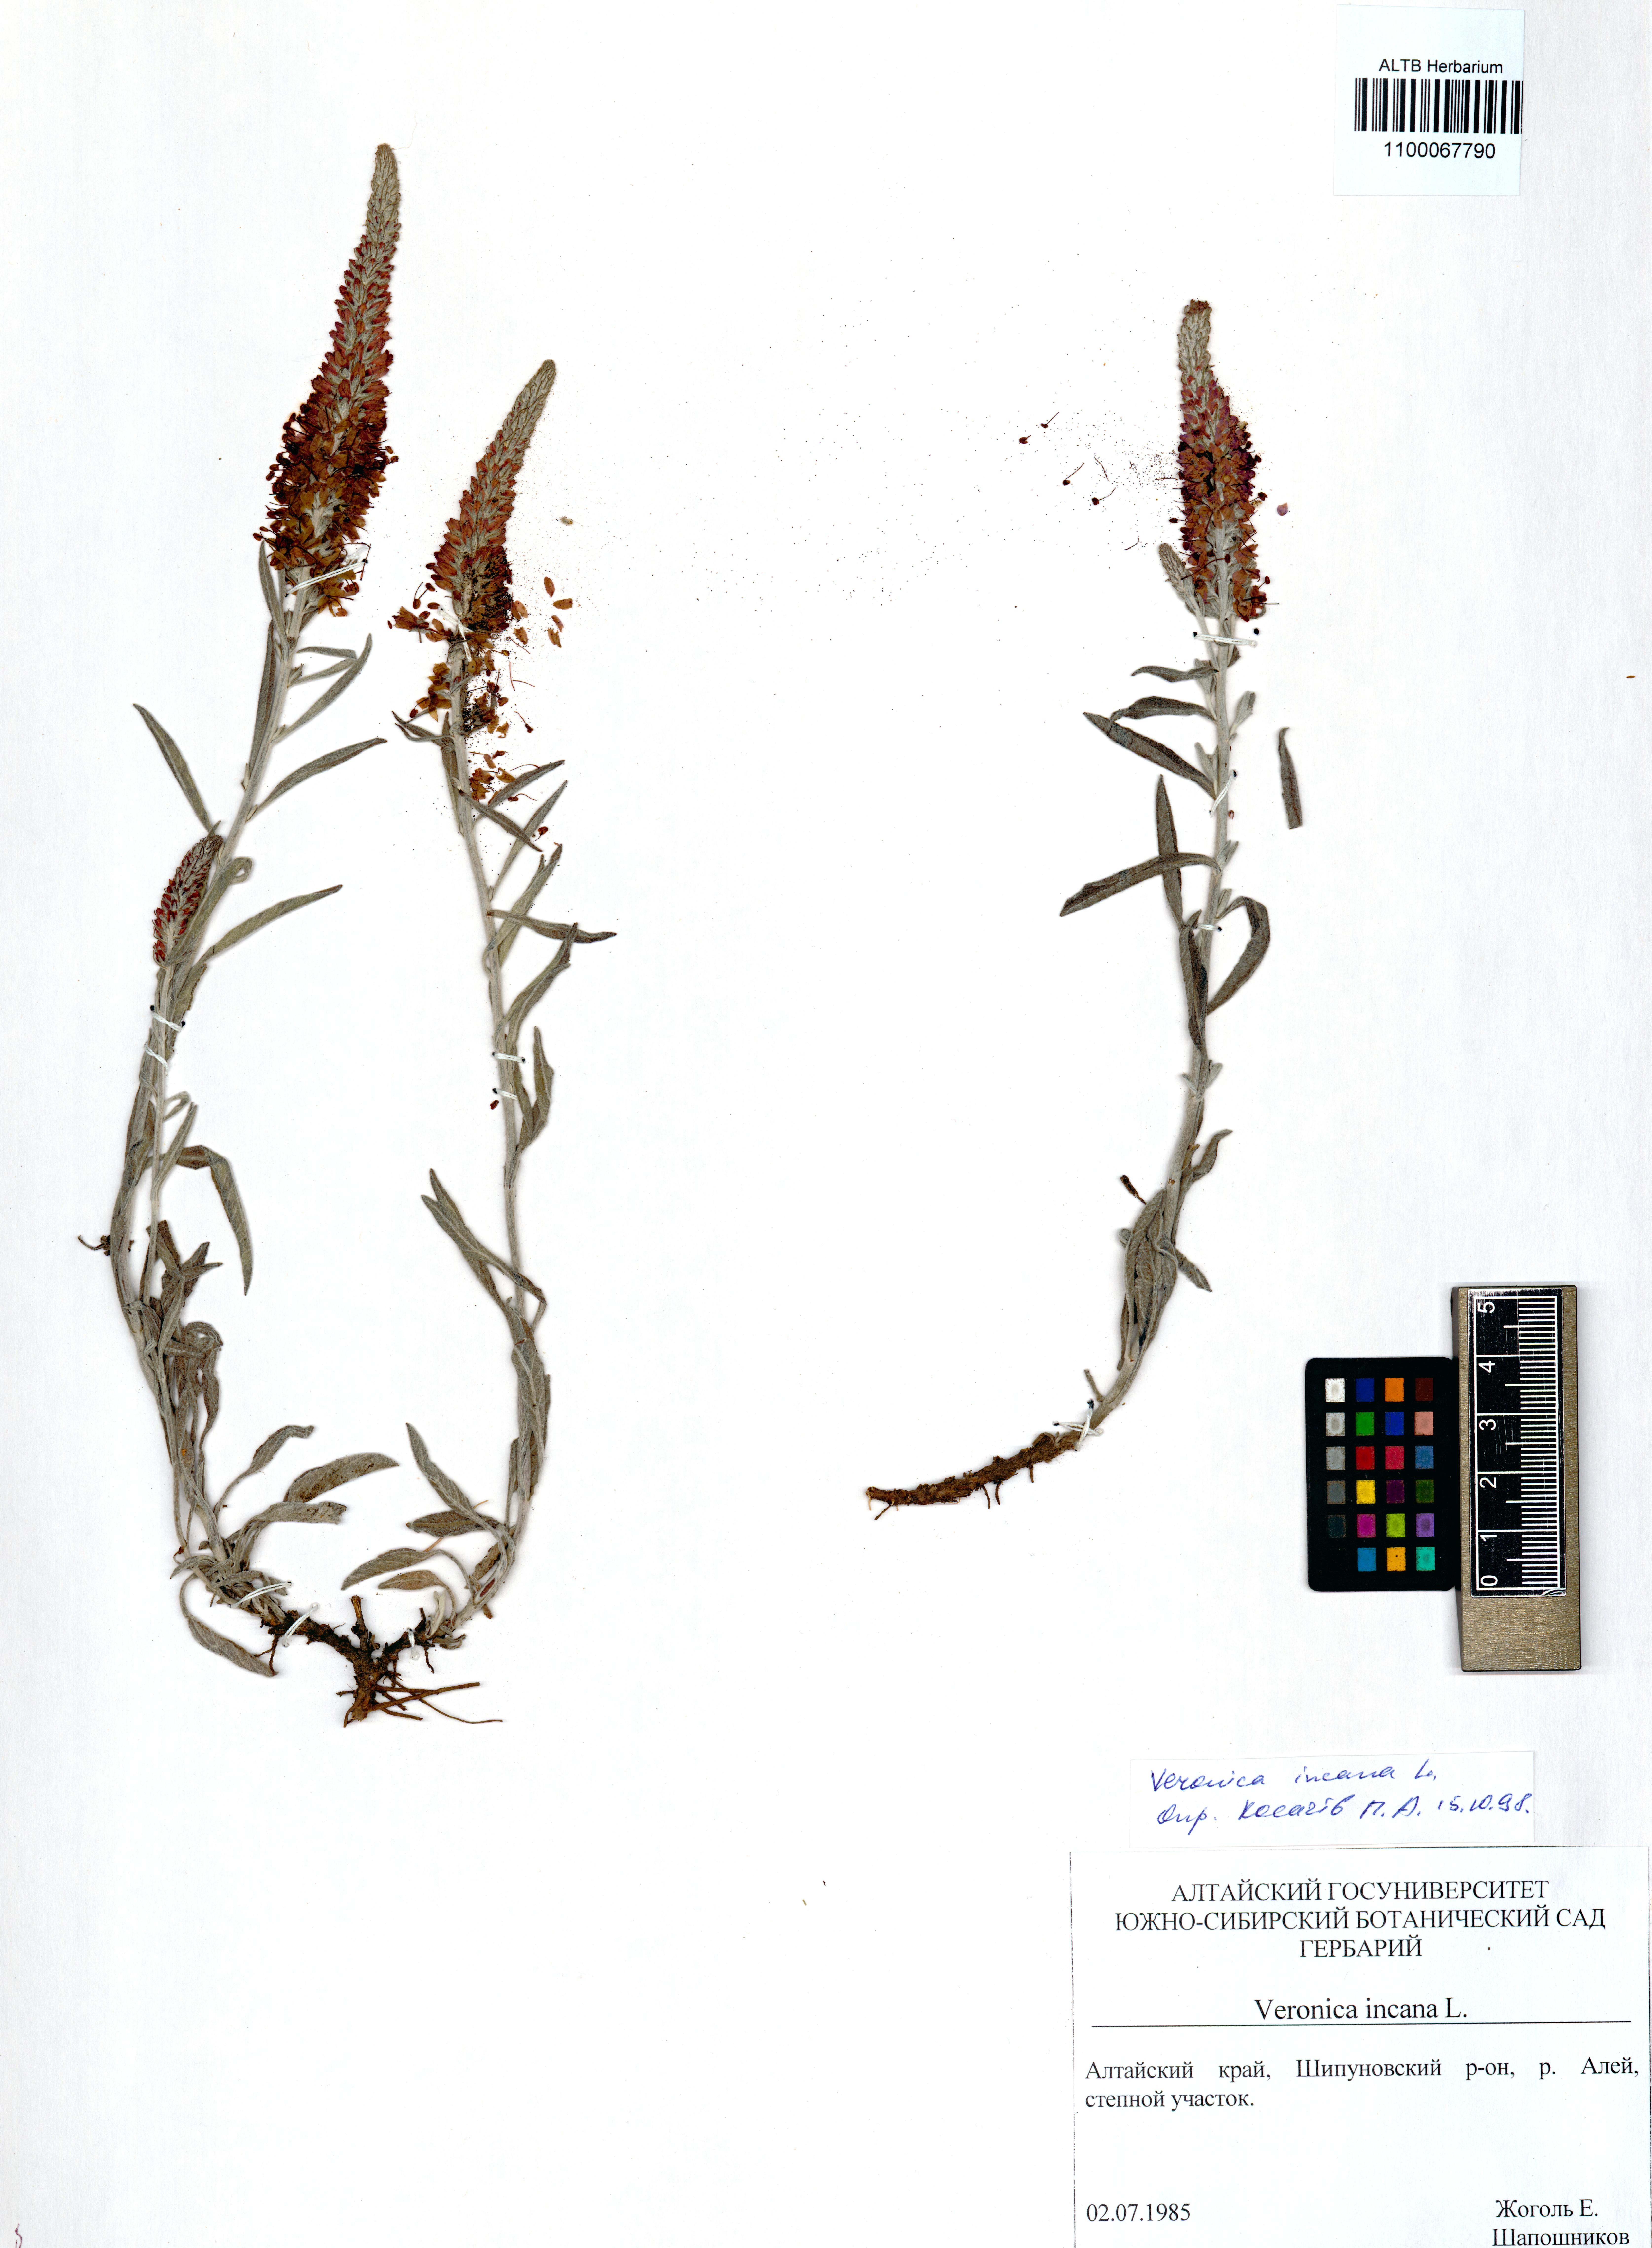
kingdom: Plantae
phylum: Tracheophyta
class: Magnoliopsida
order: Lamiales
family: Plantaginaceae
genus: Veronica
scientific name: Veronica incana
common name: Silver speedwell
